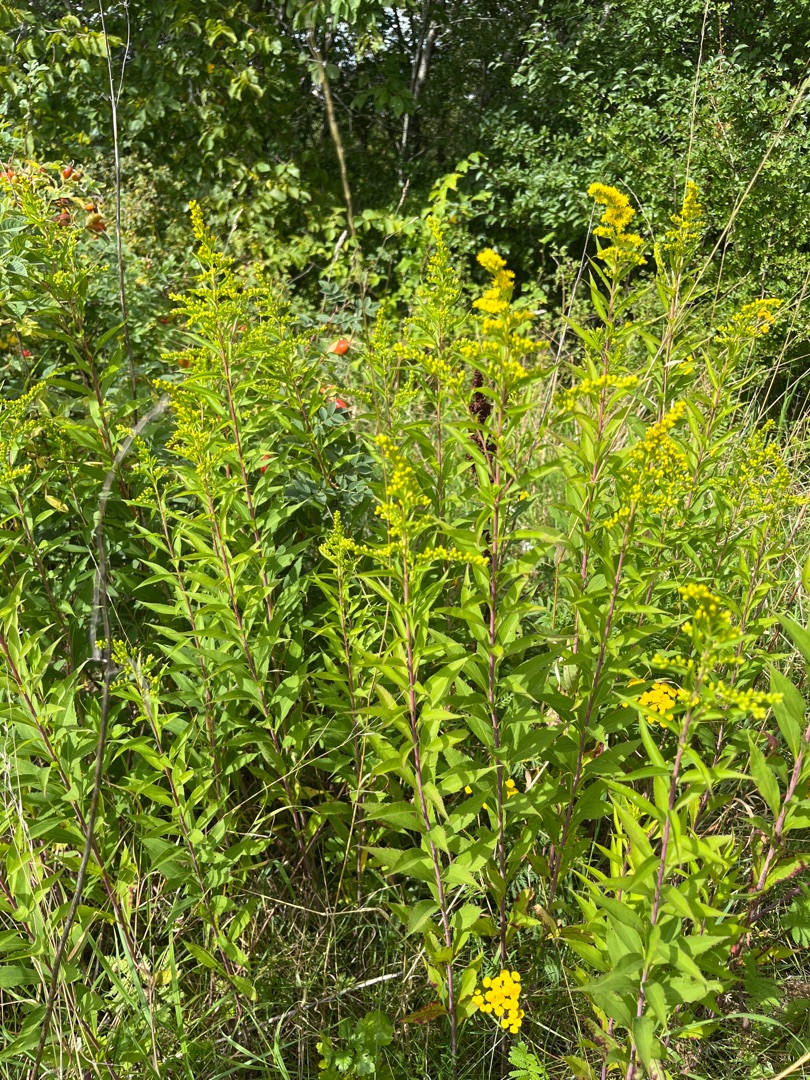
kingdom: Plantae
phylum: Tracheophyta
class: Magnoliopsida
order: Asterales
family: Asteraceae
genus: Solidago
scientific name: Solidago gigantea
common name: Sildig gyldenris
